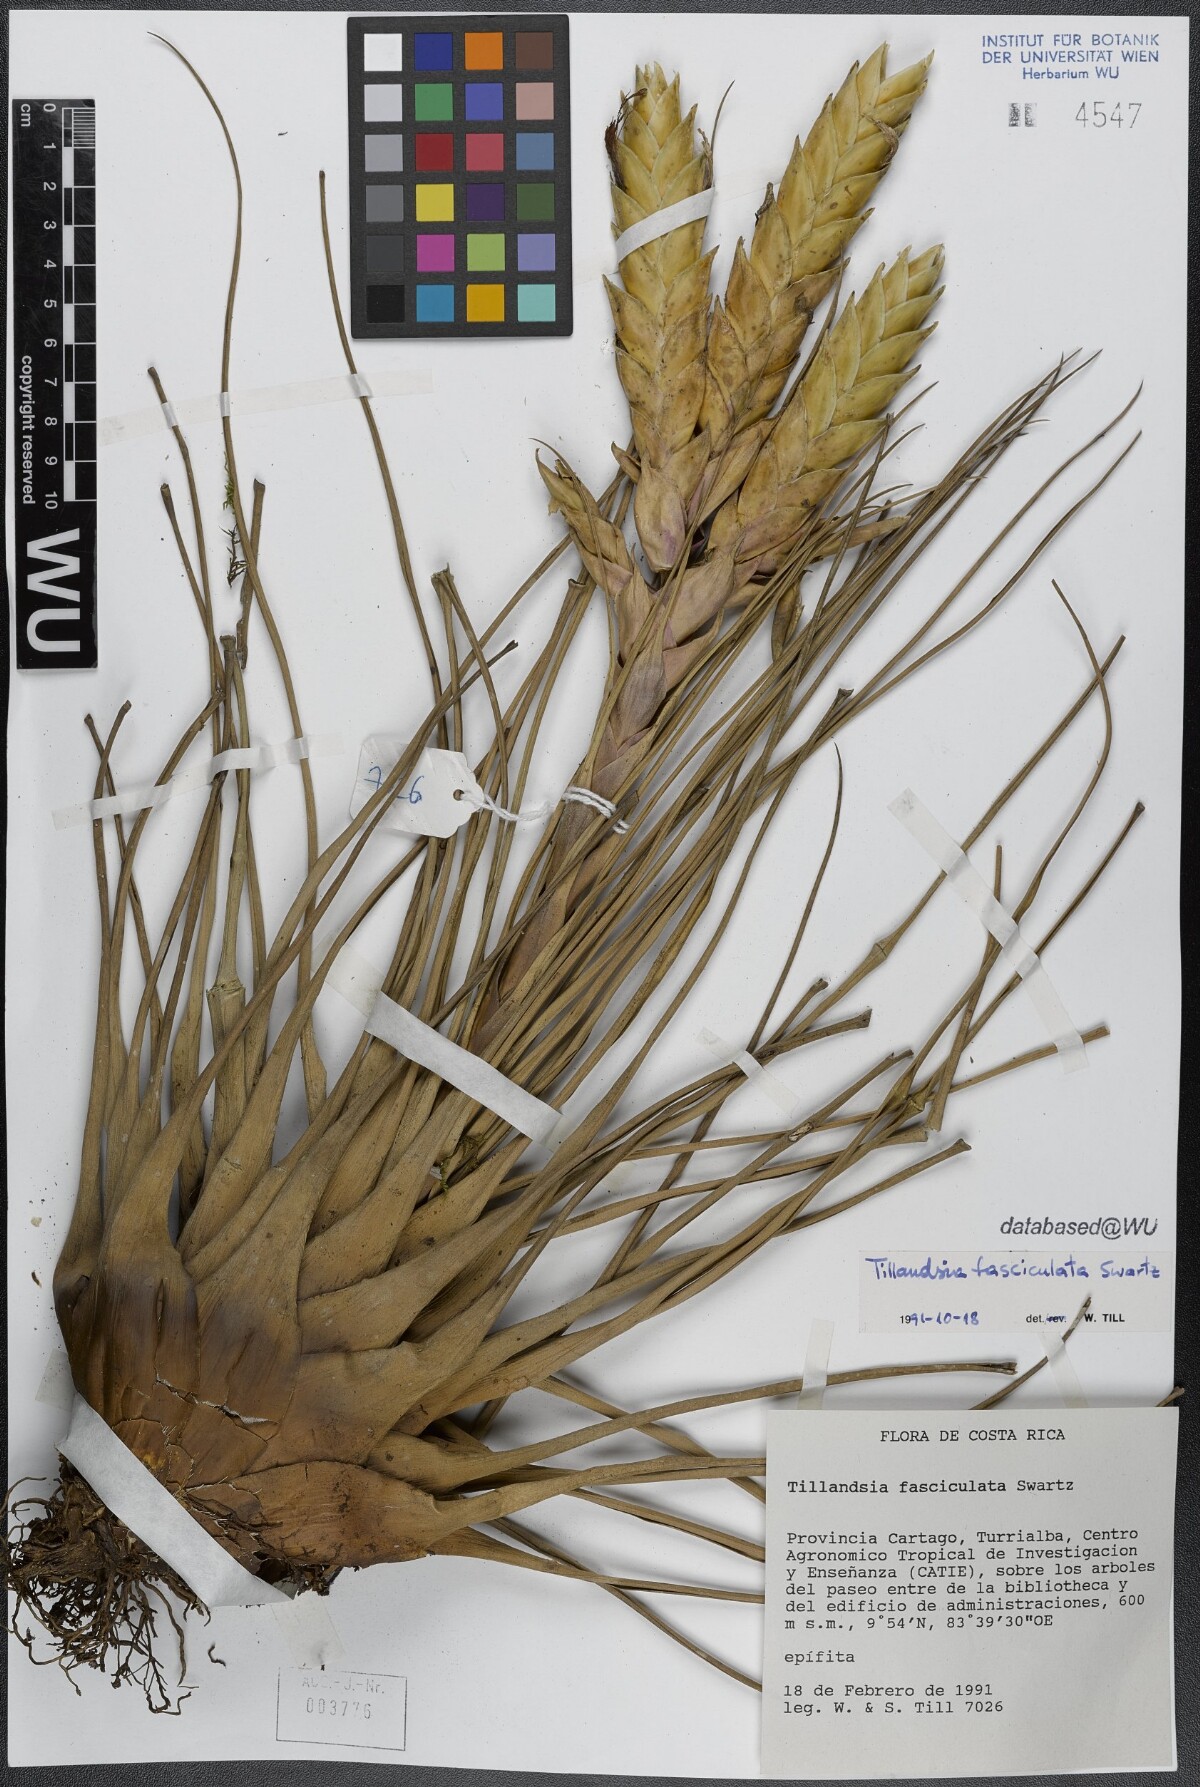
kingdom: Plantae
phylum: Tracheophyta
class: Liliopsida
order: Poales
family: Bromeliaceae
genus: Tillandsia
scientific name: Tillandsia fasciculata
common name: Giant airplant
